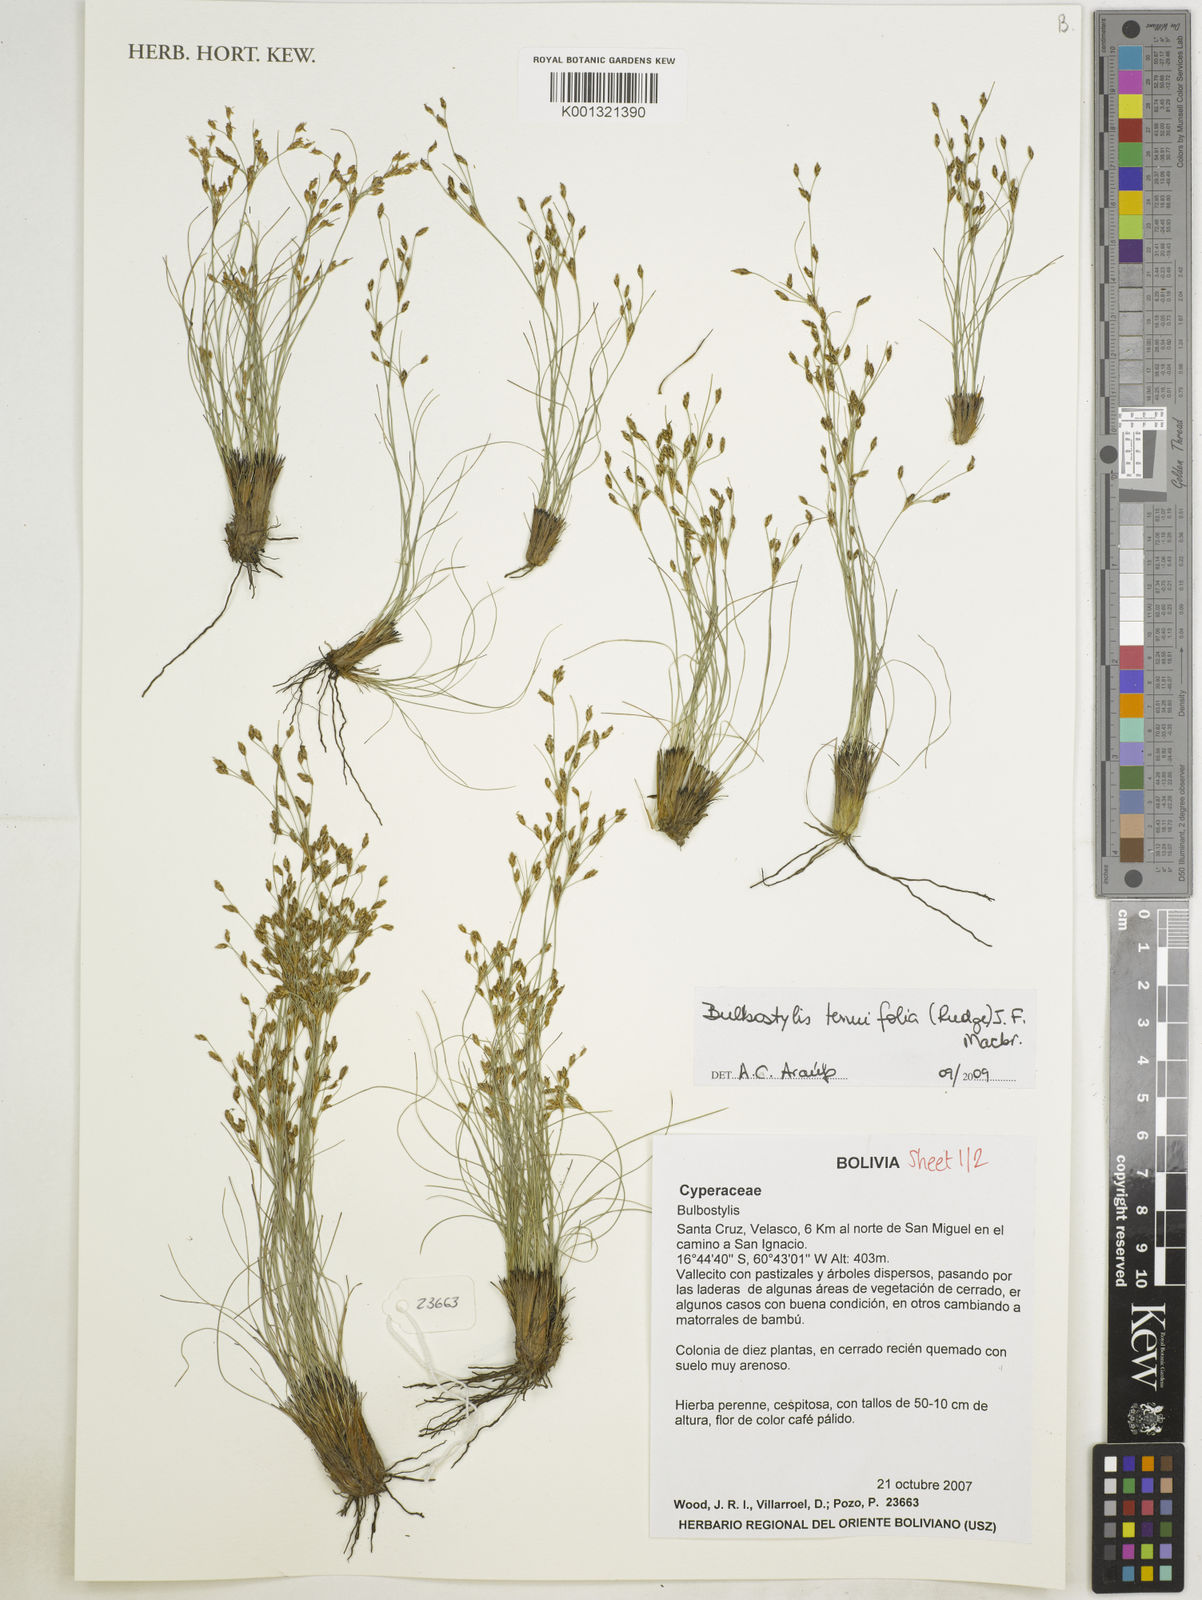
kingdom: Plantae
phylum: Tracheophyta
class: Liliopsida
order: Poales
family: Cyperaceae
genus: Bulbostylis
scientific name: Bulbostylis tenuifolia
